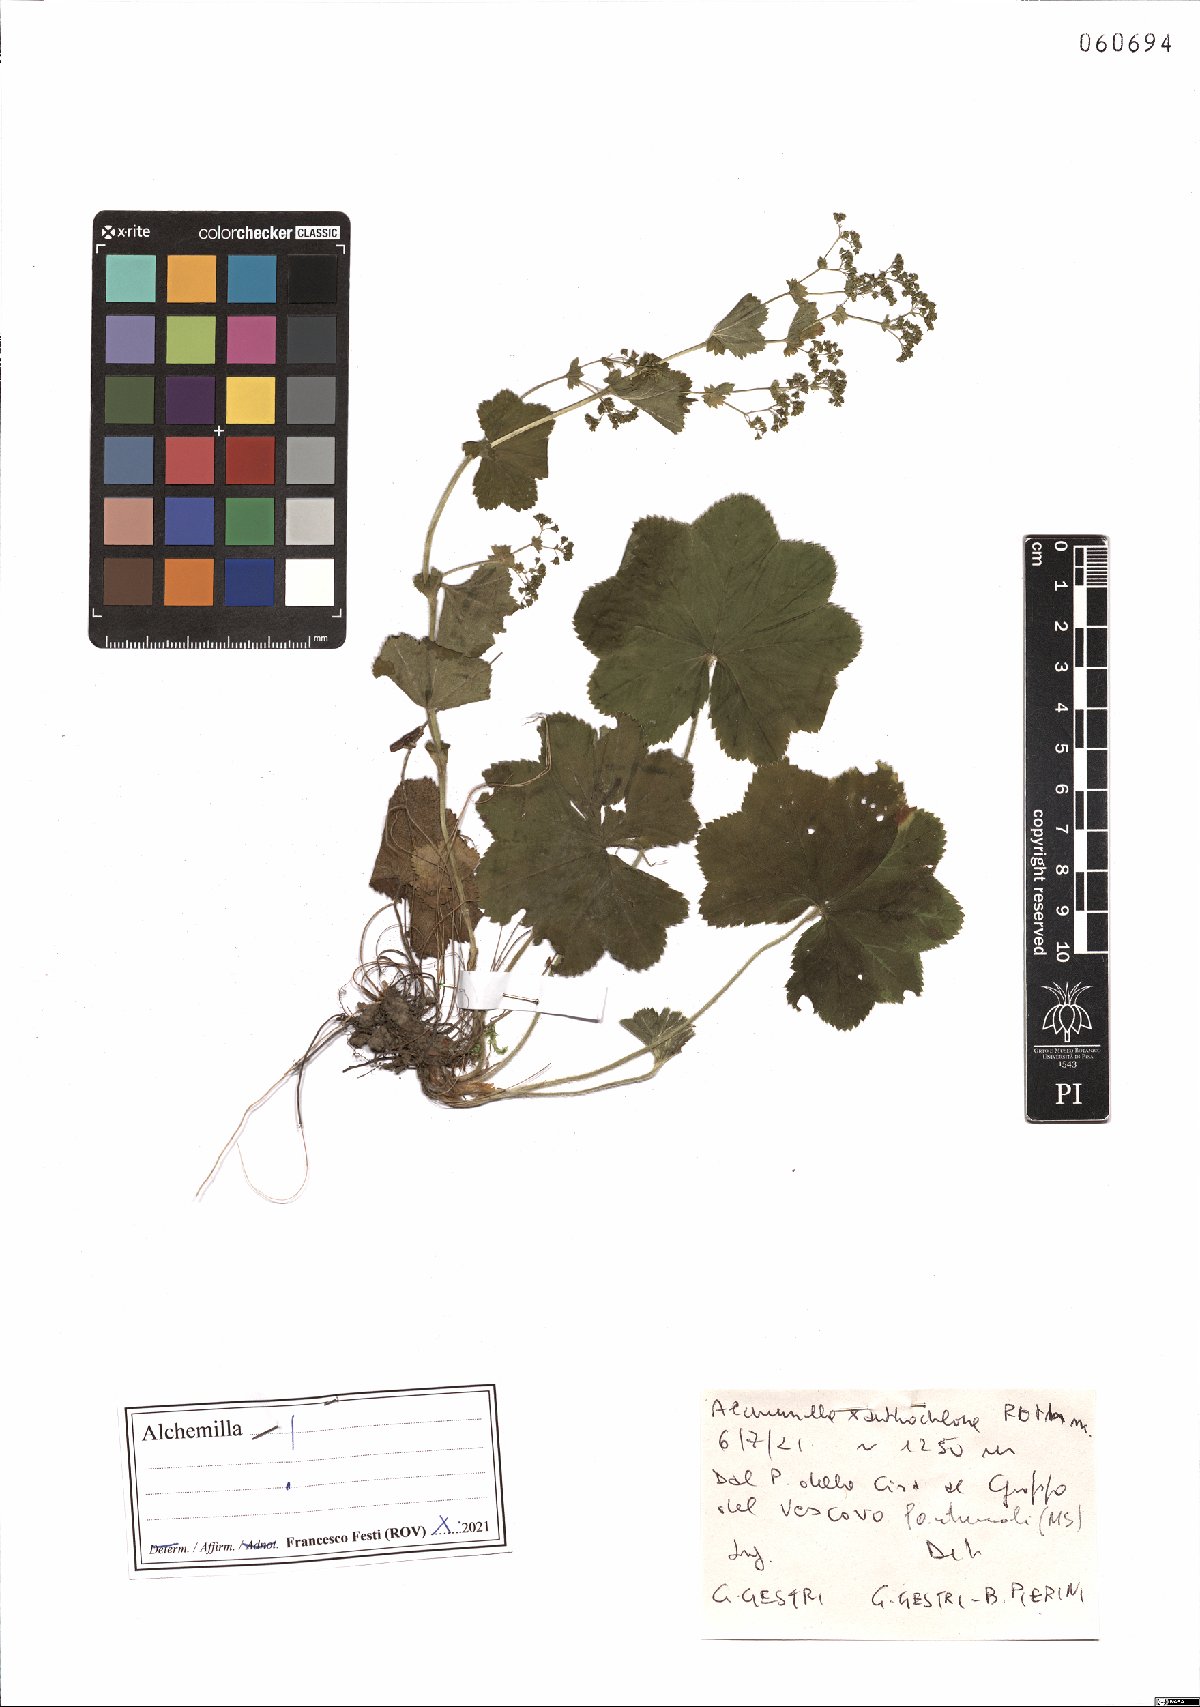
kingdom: Plantae
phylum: Tracheophyta
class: Magnoliopsida
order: Rosales
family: Rosaceae
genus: Alchemilla
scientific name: Alchemilla xanthochlora
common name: Intermediate lady's-mantle
